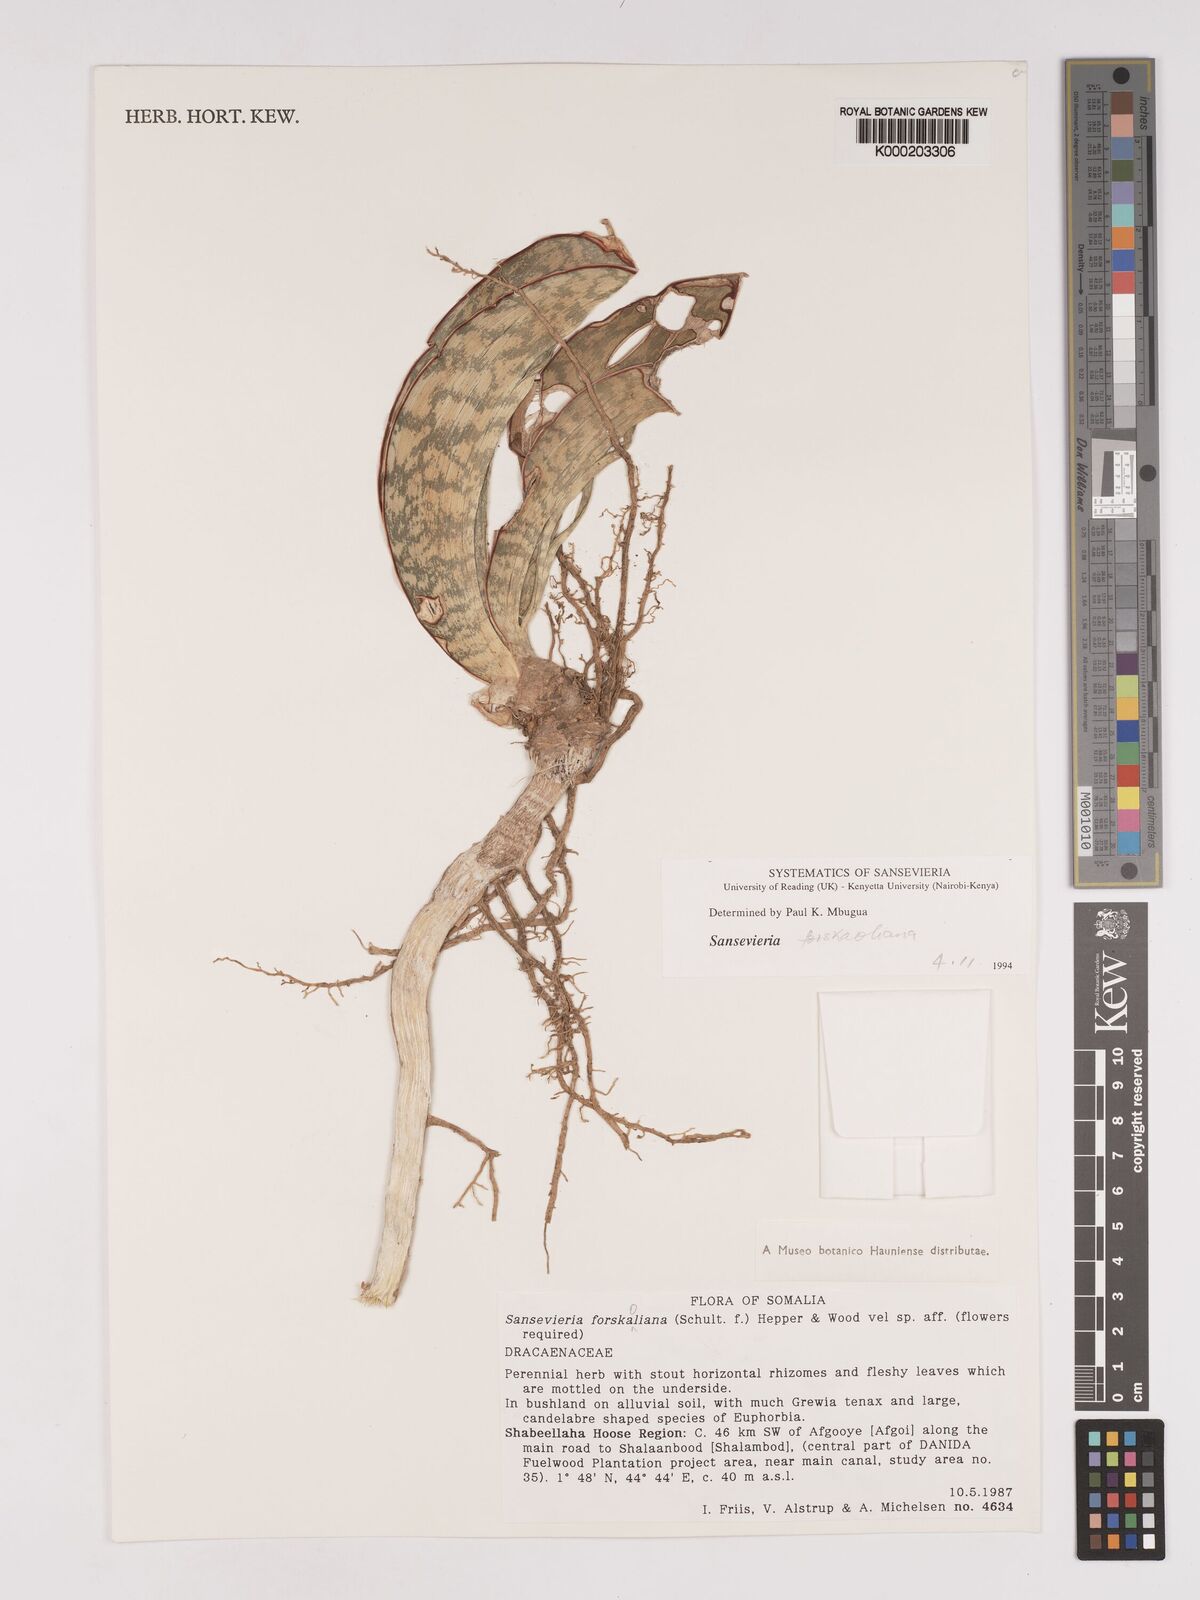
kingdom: Plantae
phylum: Tracheophyta
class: Liliopsida
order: Asparagales
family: Asparagaceae
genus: Dracaena
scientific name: Dracaena forskaliana
